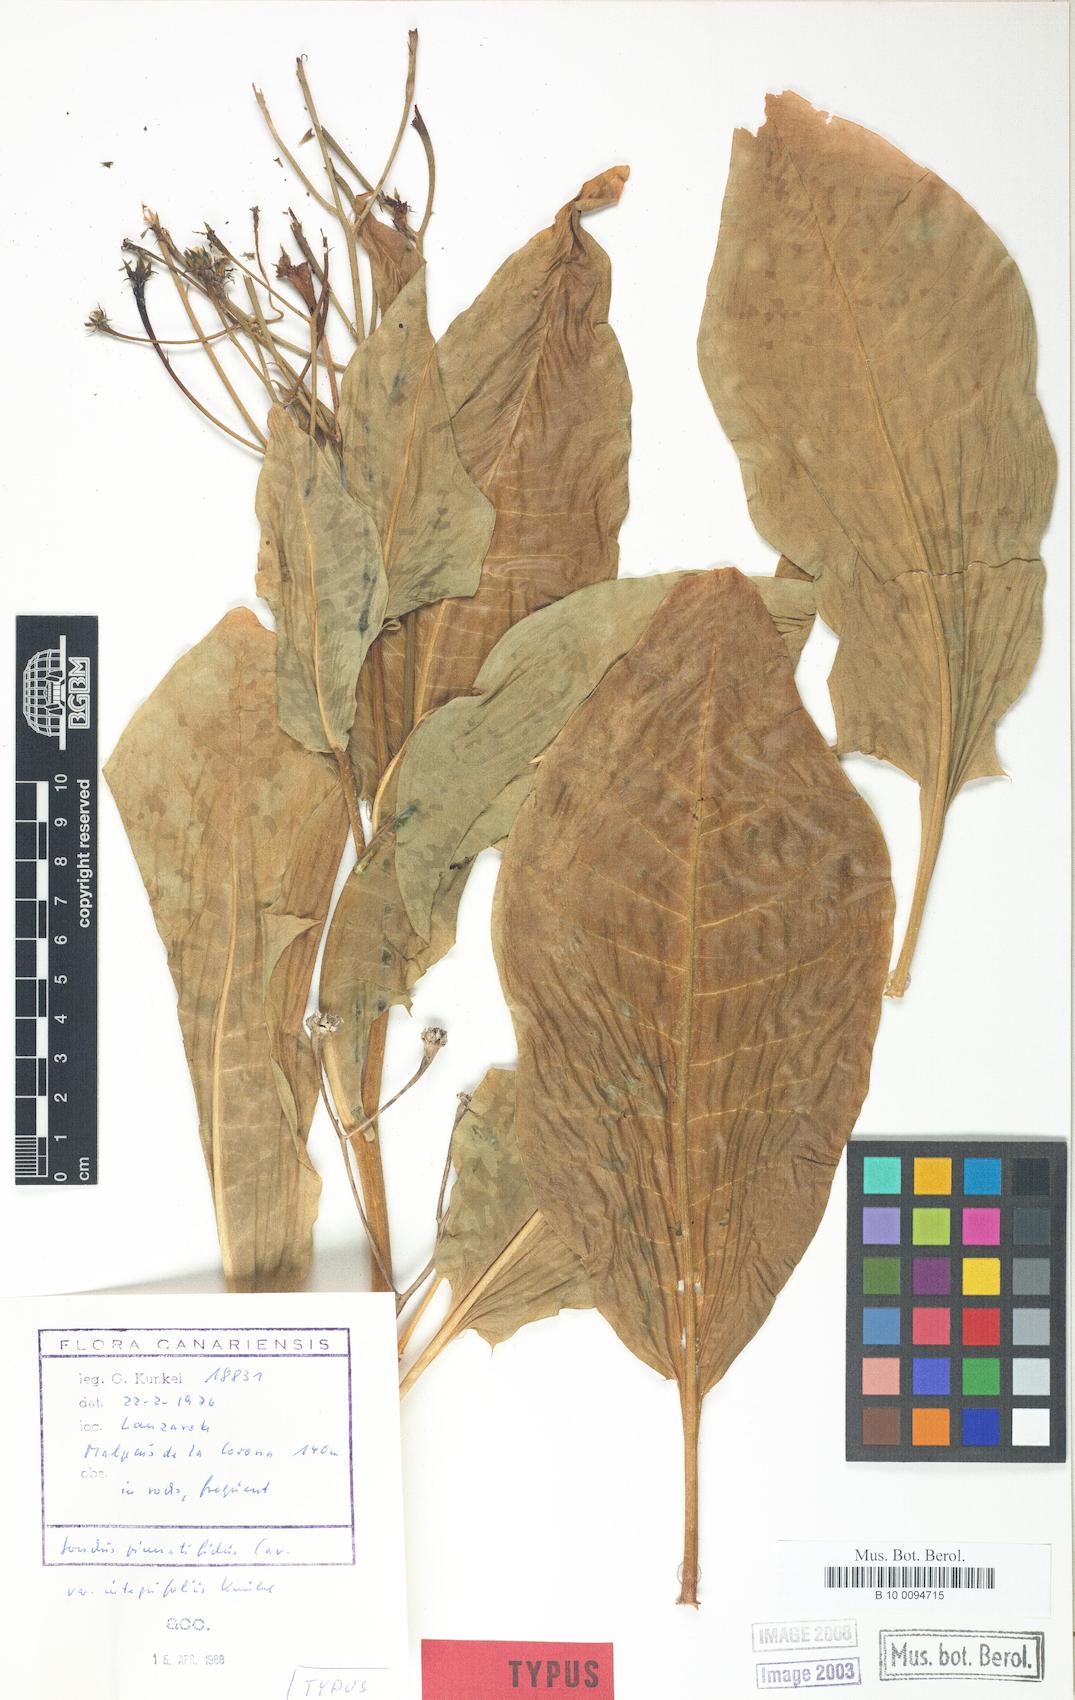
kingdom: Plantae
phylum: Tracheophyta
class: Magnoliopsida
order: Asterales
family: Asteraceae
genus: Sonchus
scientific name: Sonchus pinnatifidus
